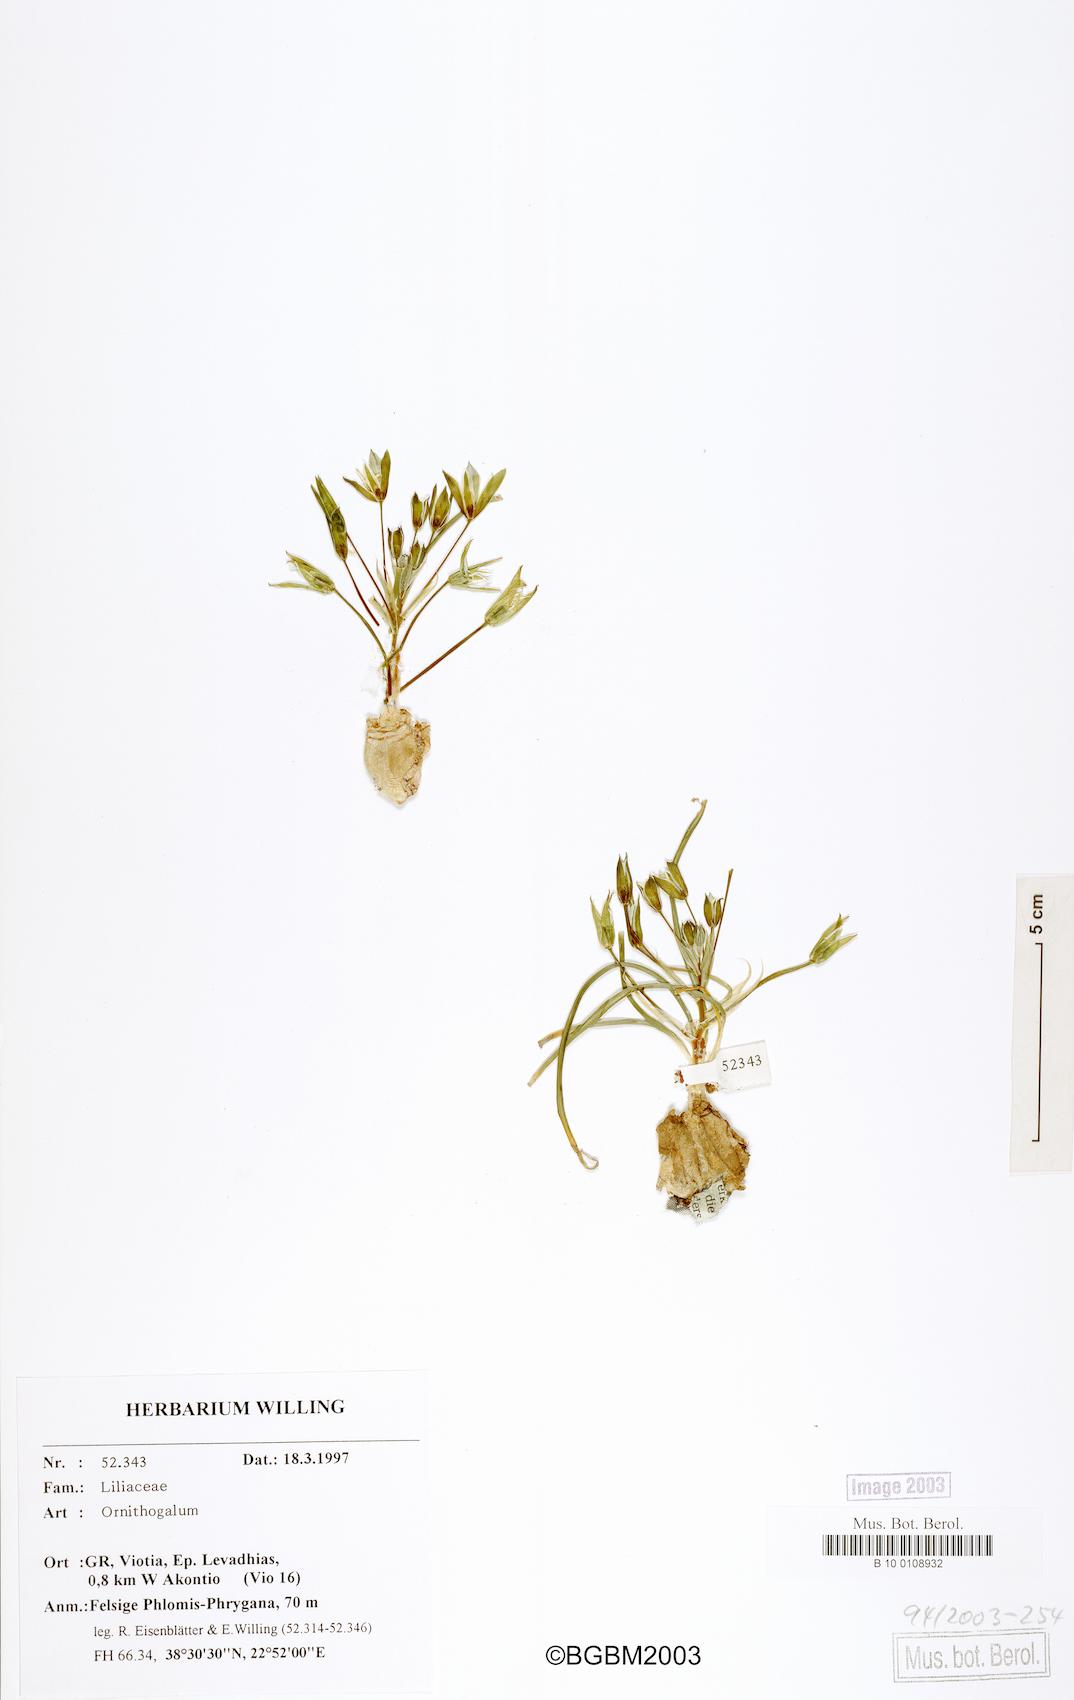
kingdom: Plantae
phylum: Tracheophyta
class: Liliopsida
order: Asparagales
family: Asparagaceae
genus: Ornithogalum
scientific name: Ornithogalum
